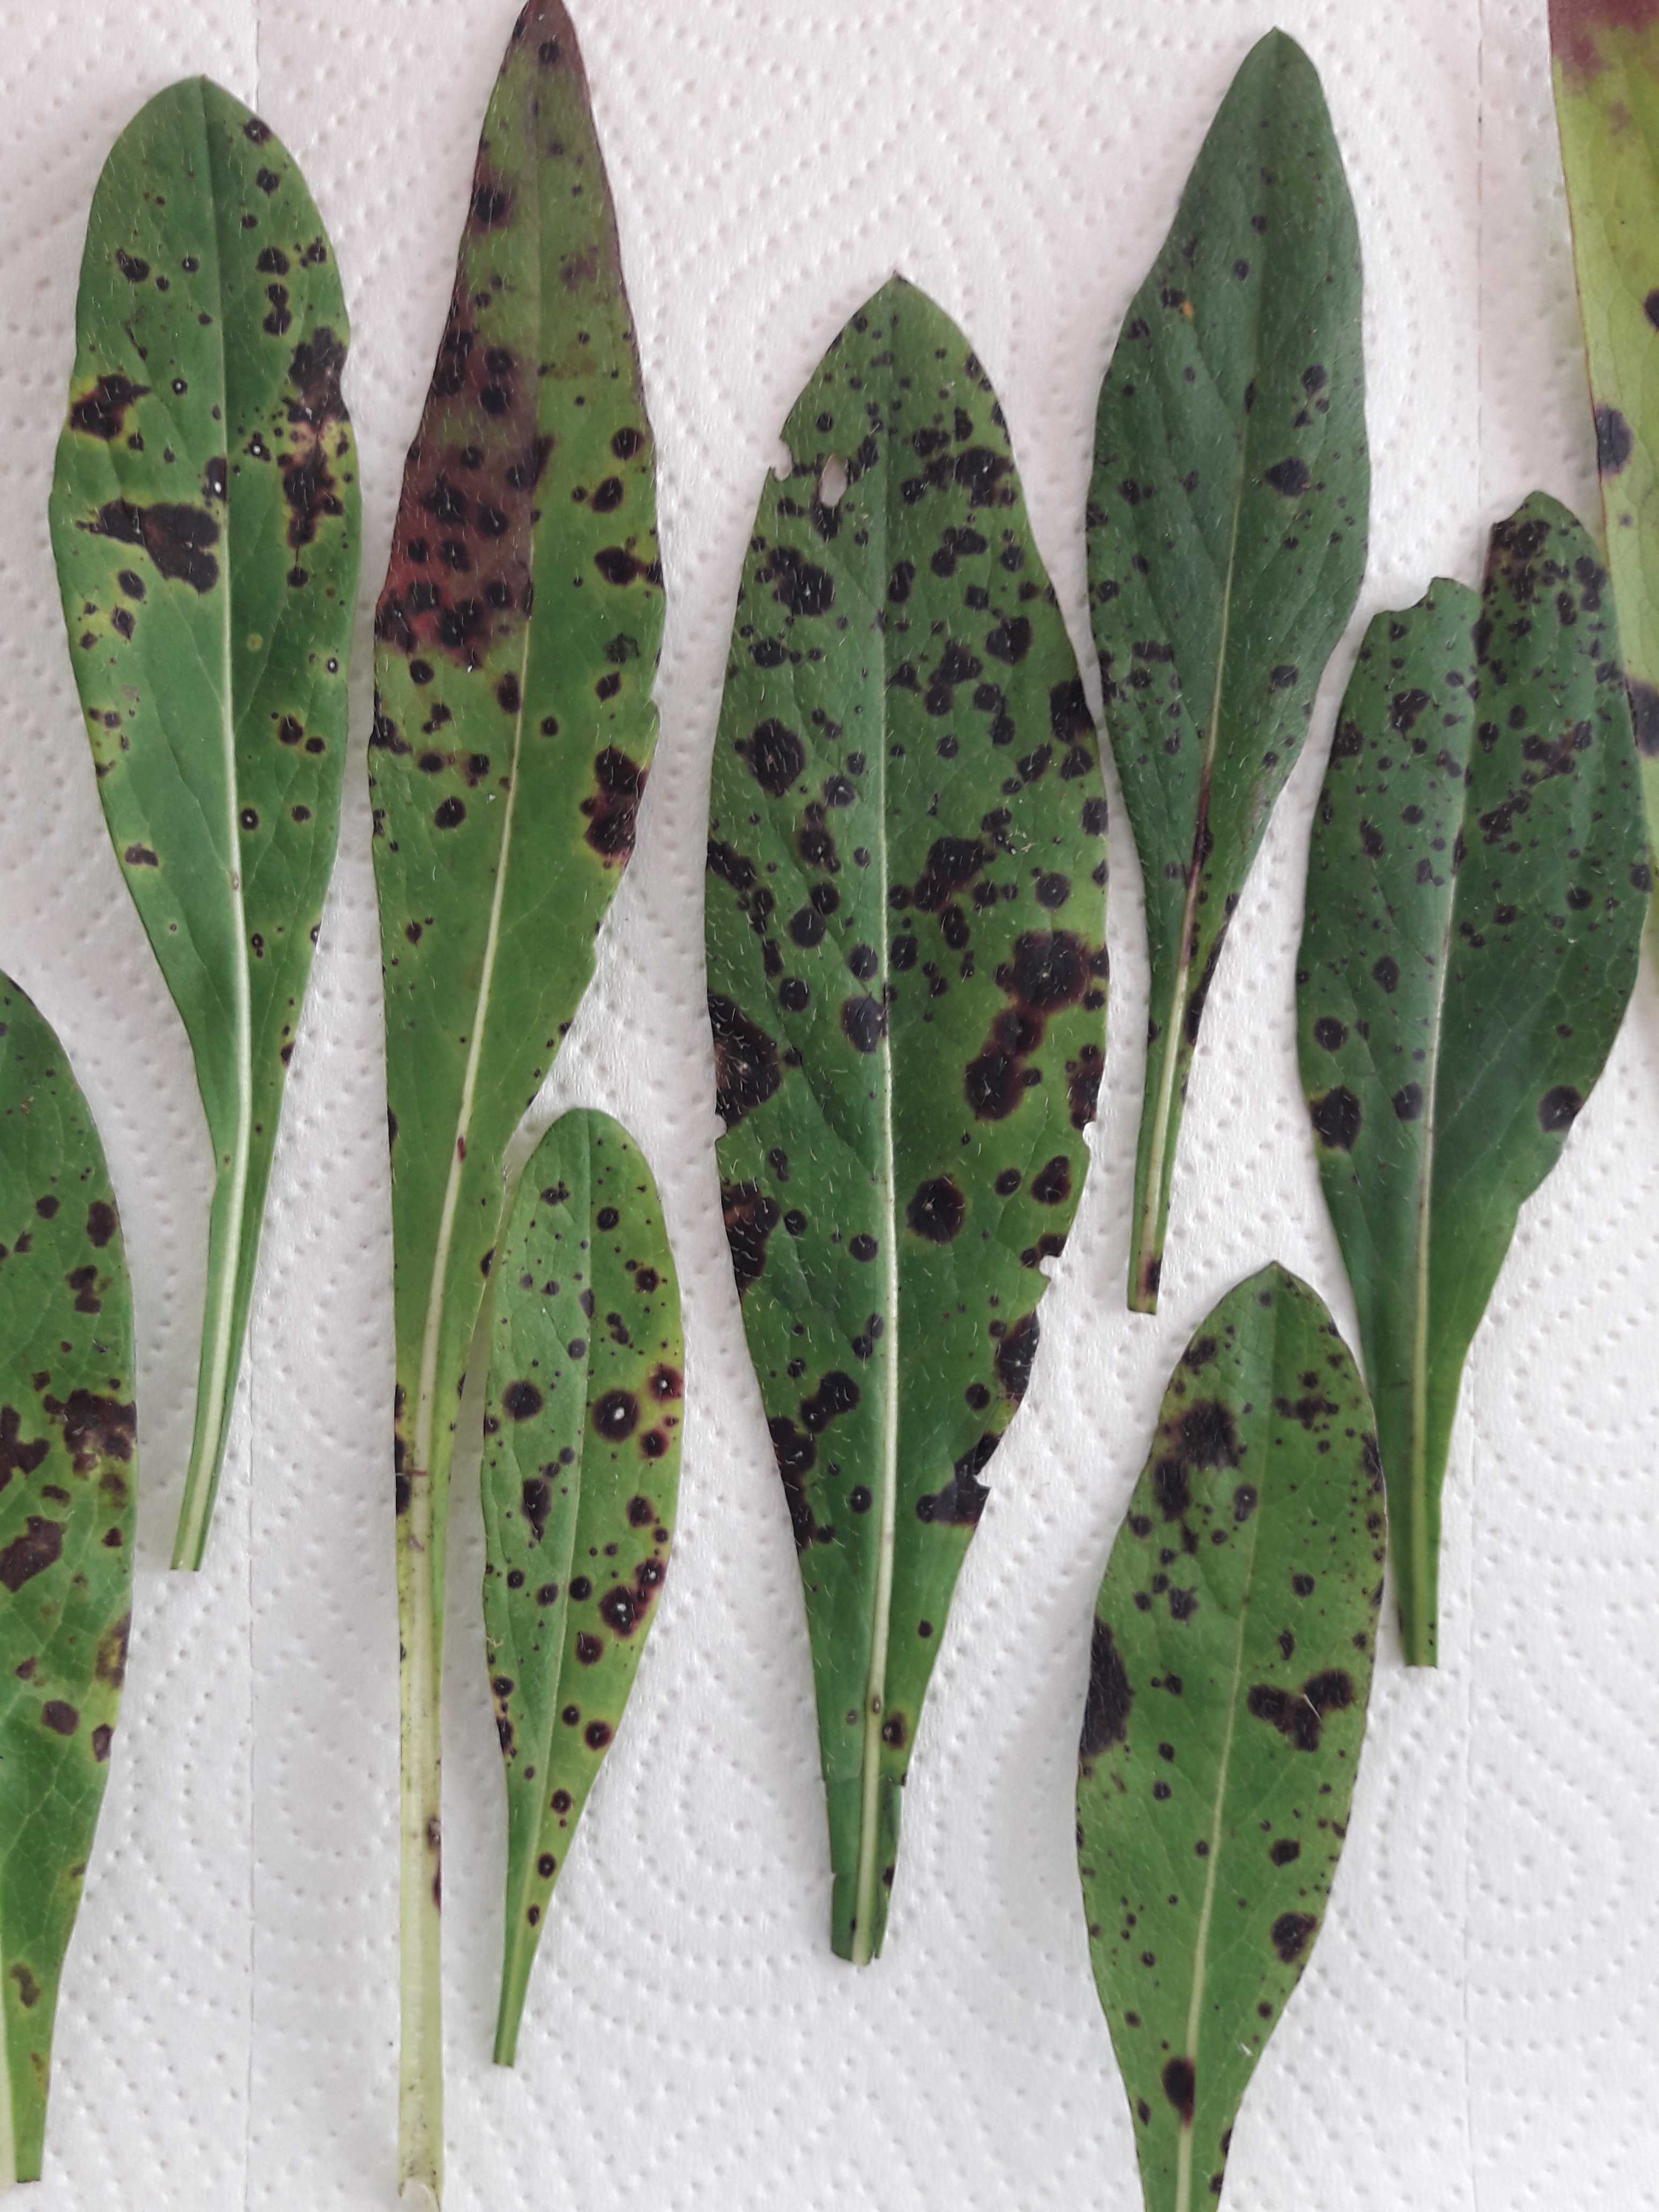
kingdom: Fungi
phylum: Ascomycota
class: Dothideomycetes
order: Mycosphaerellales
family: Mycosphaerellaceae
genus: Septoria
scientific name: Septoria scabiosicola
